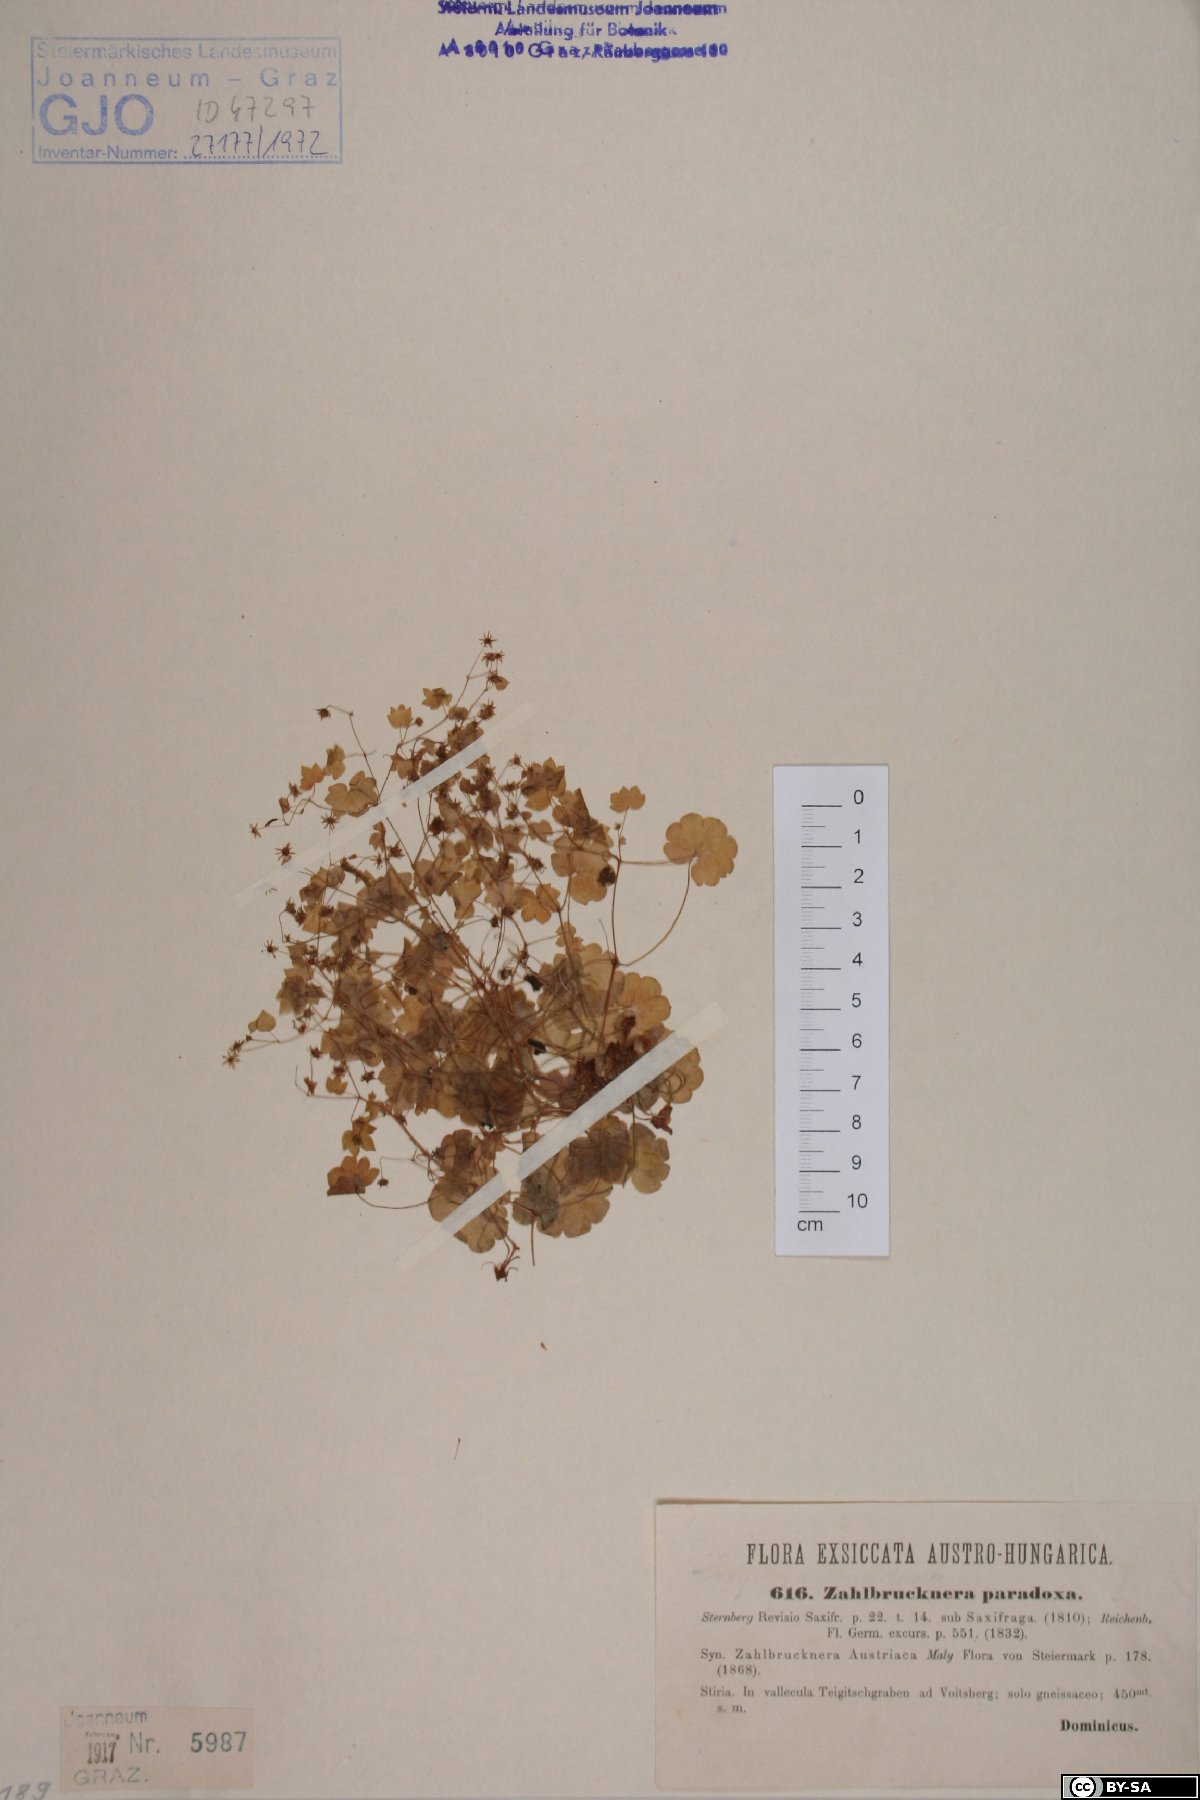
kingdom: Plantae
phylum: Tracheophyta
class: Magnoliopsida
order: Saxifragales
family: Saxifragaceae
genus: Saxifraga
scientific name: Saxifraga paradoxa
